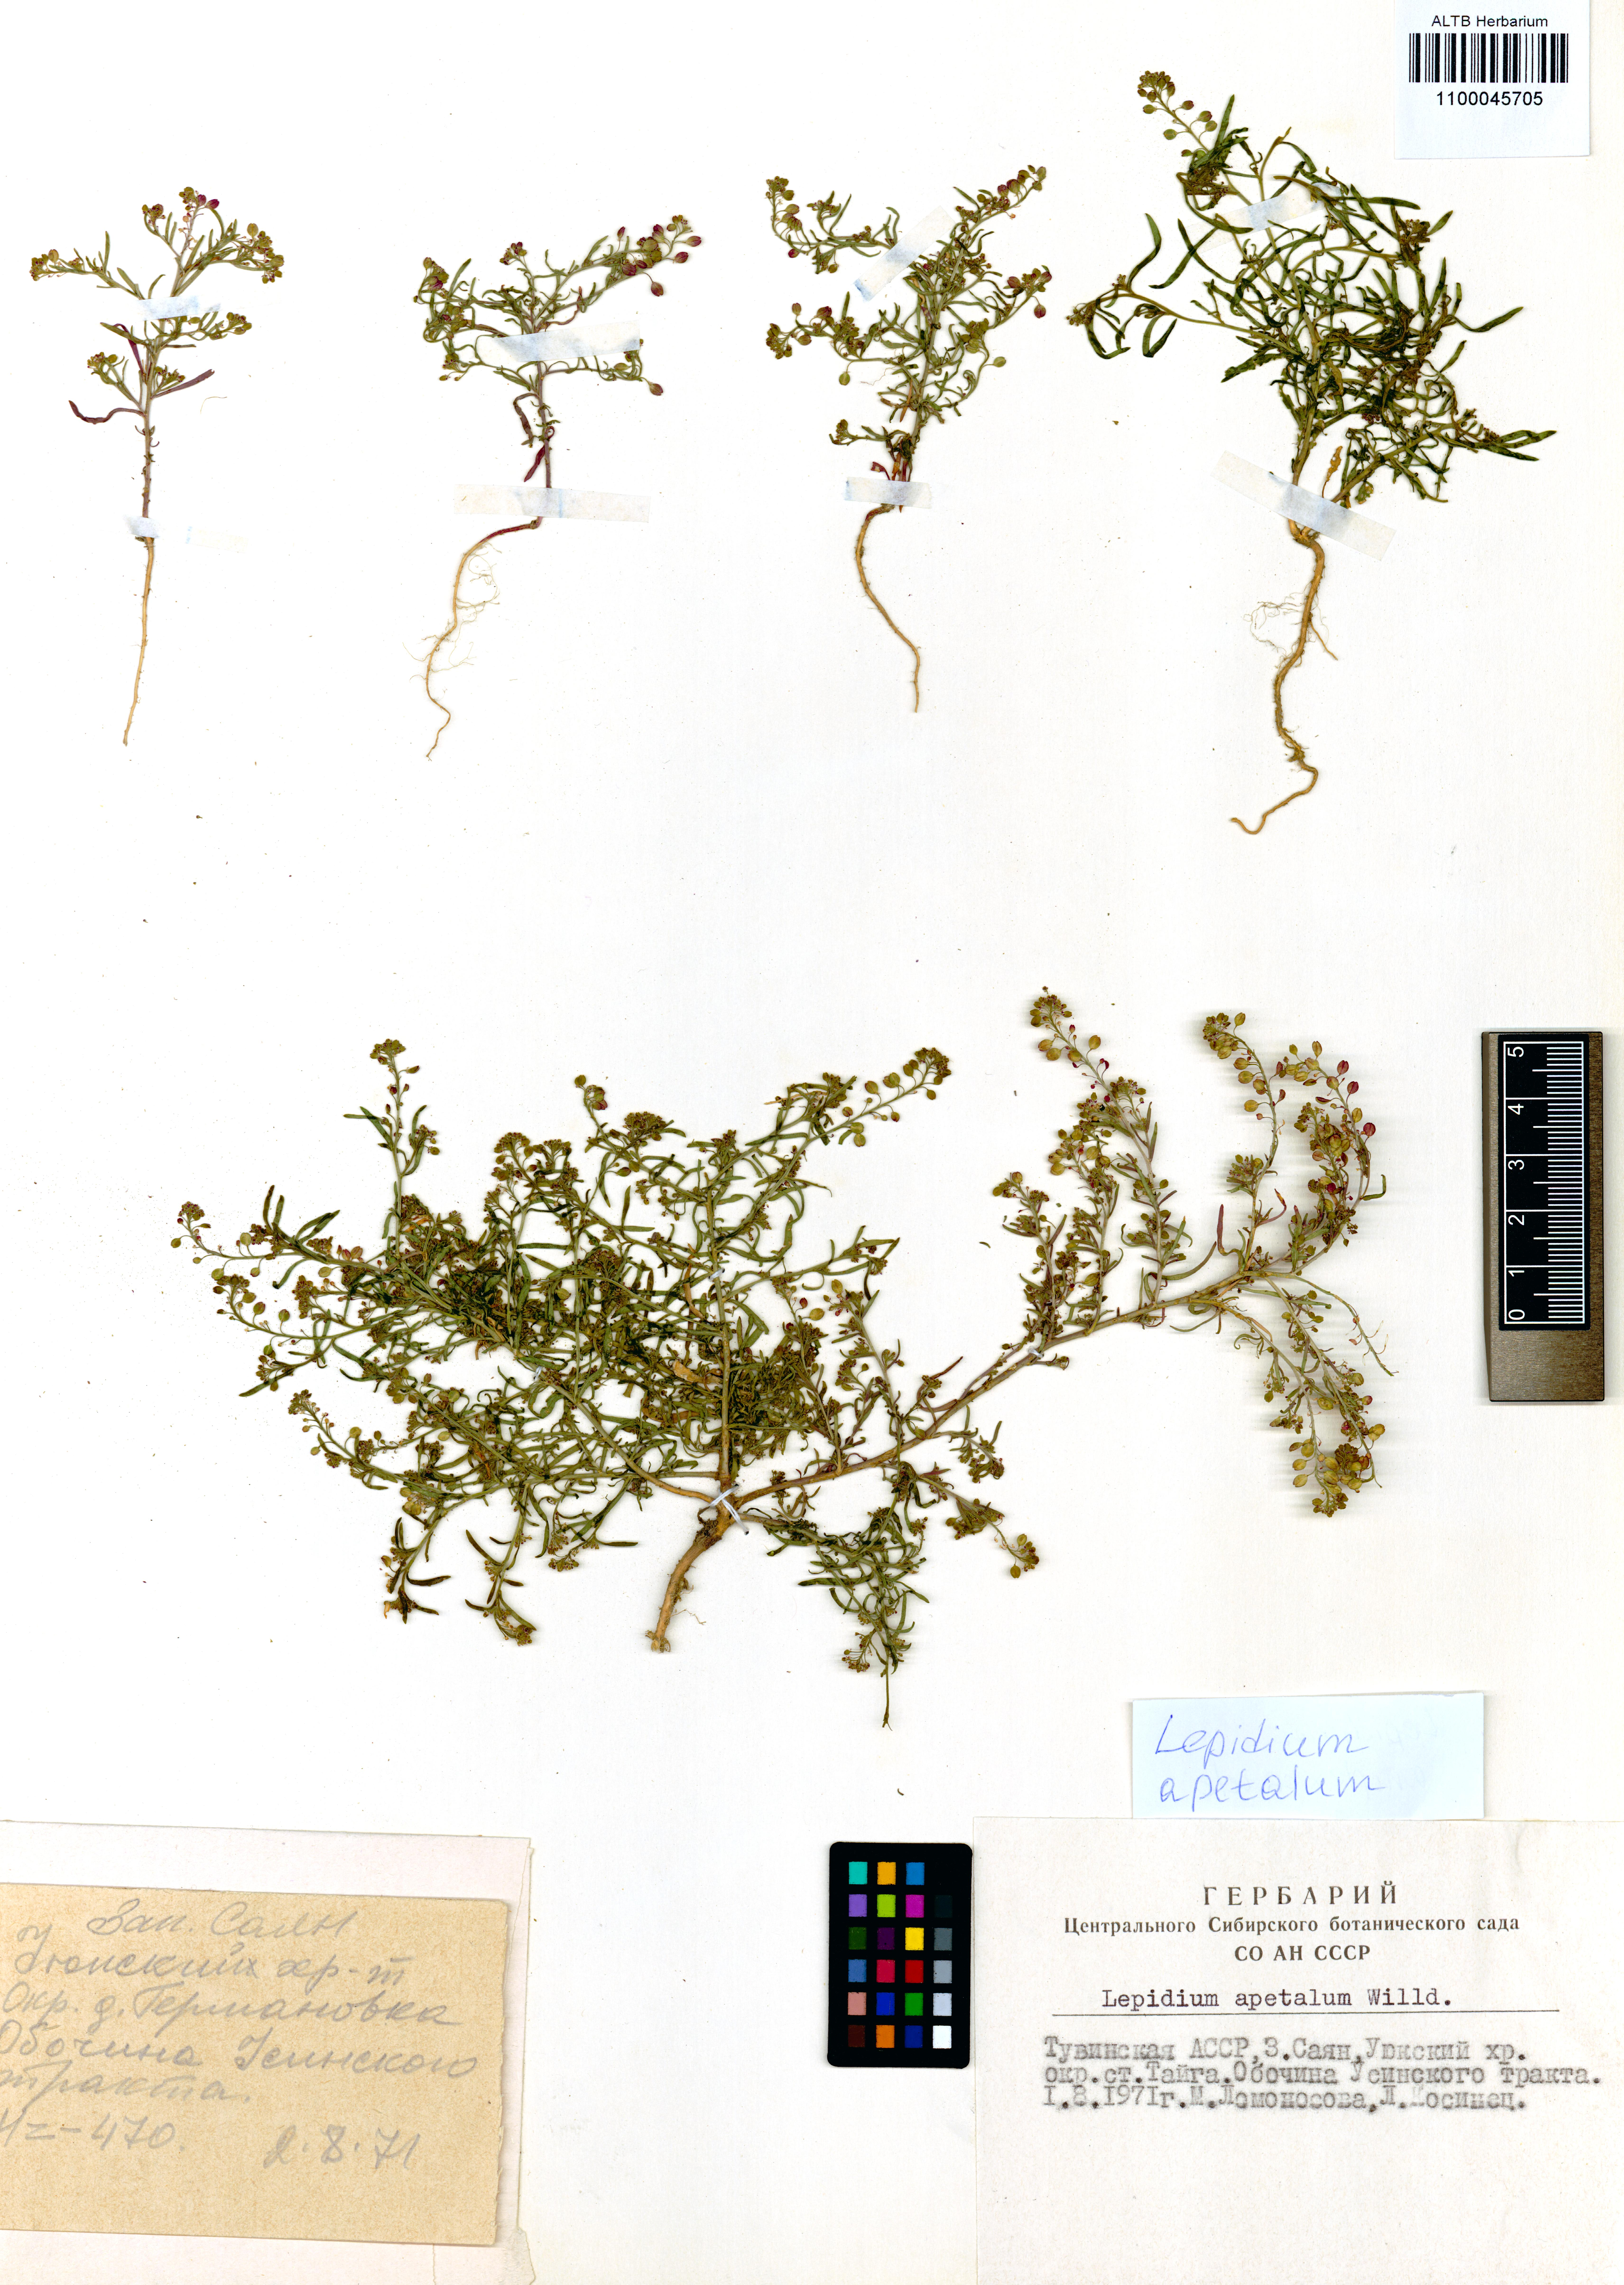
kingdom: Plantae
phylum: Tracheophyta
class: Magnoliopsida
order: Brassicales
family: Brassicaceae
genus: Lepidium
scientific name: Lepidium apetalum
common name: Pepperweed
